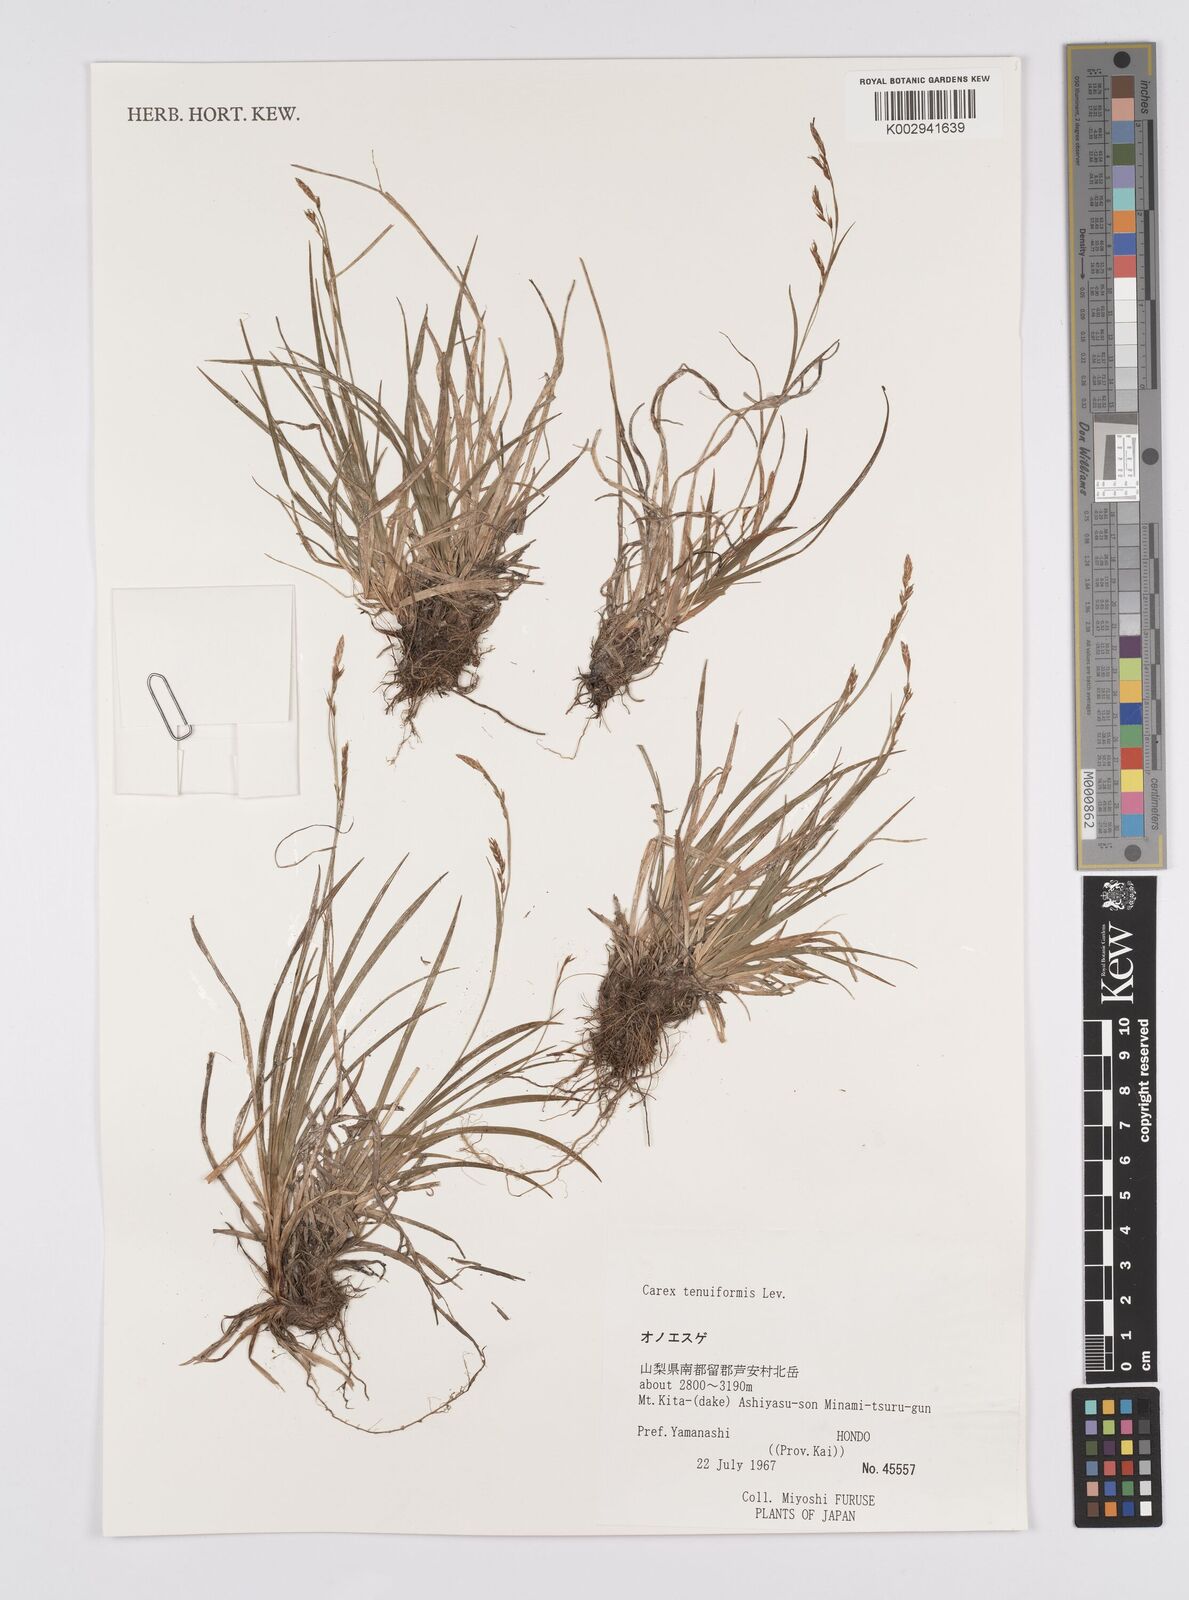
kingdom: Plantae
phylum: Tracheophyta
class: Liliopsida
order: Poales
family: Cyperaceae
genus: Carex
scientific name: Carex tenuiformis
